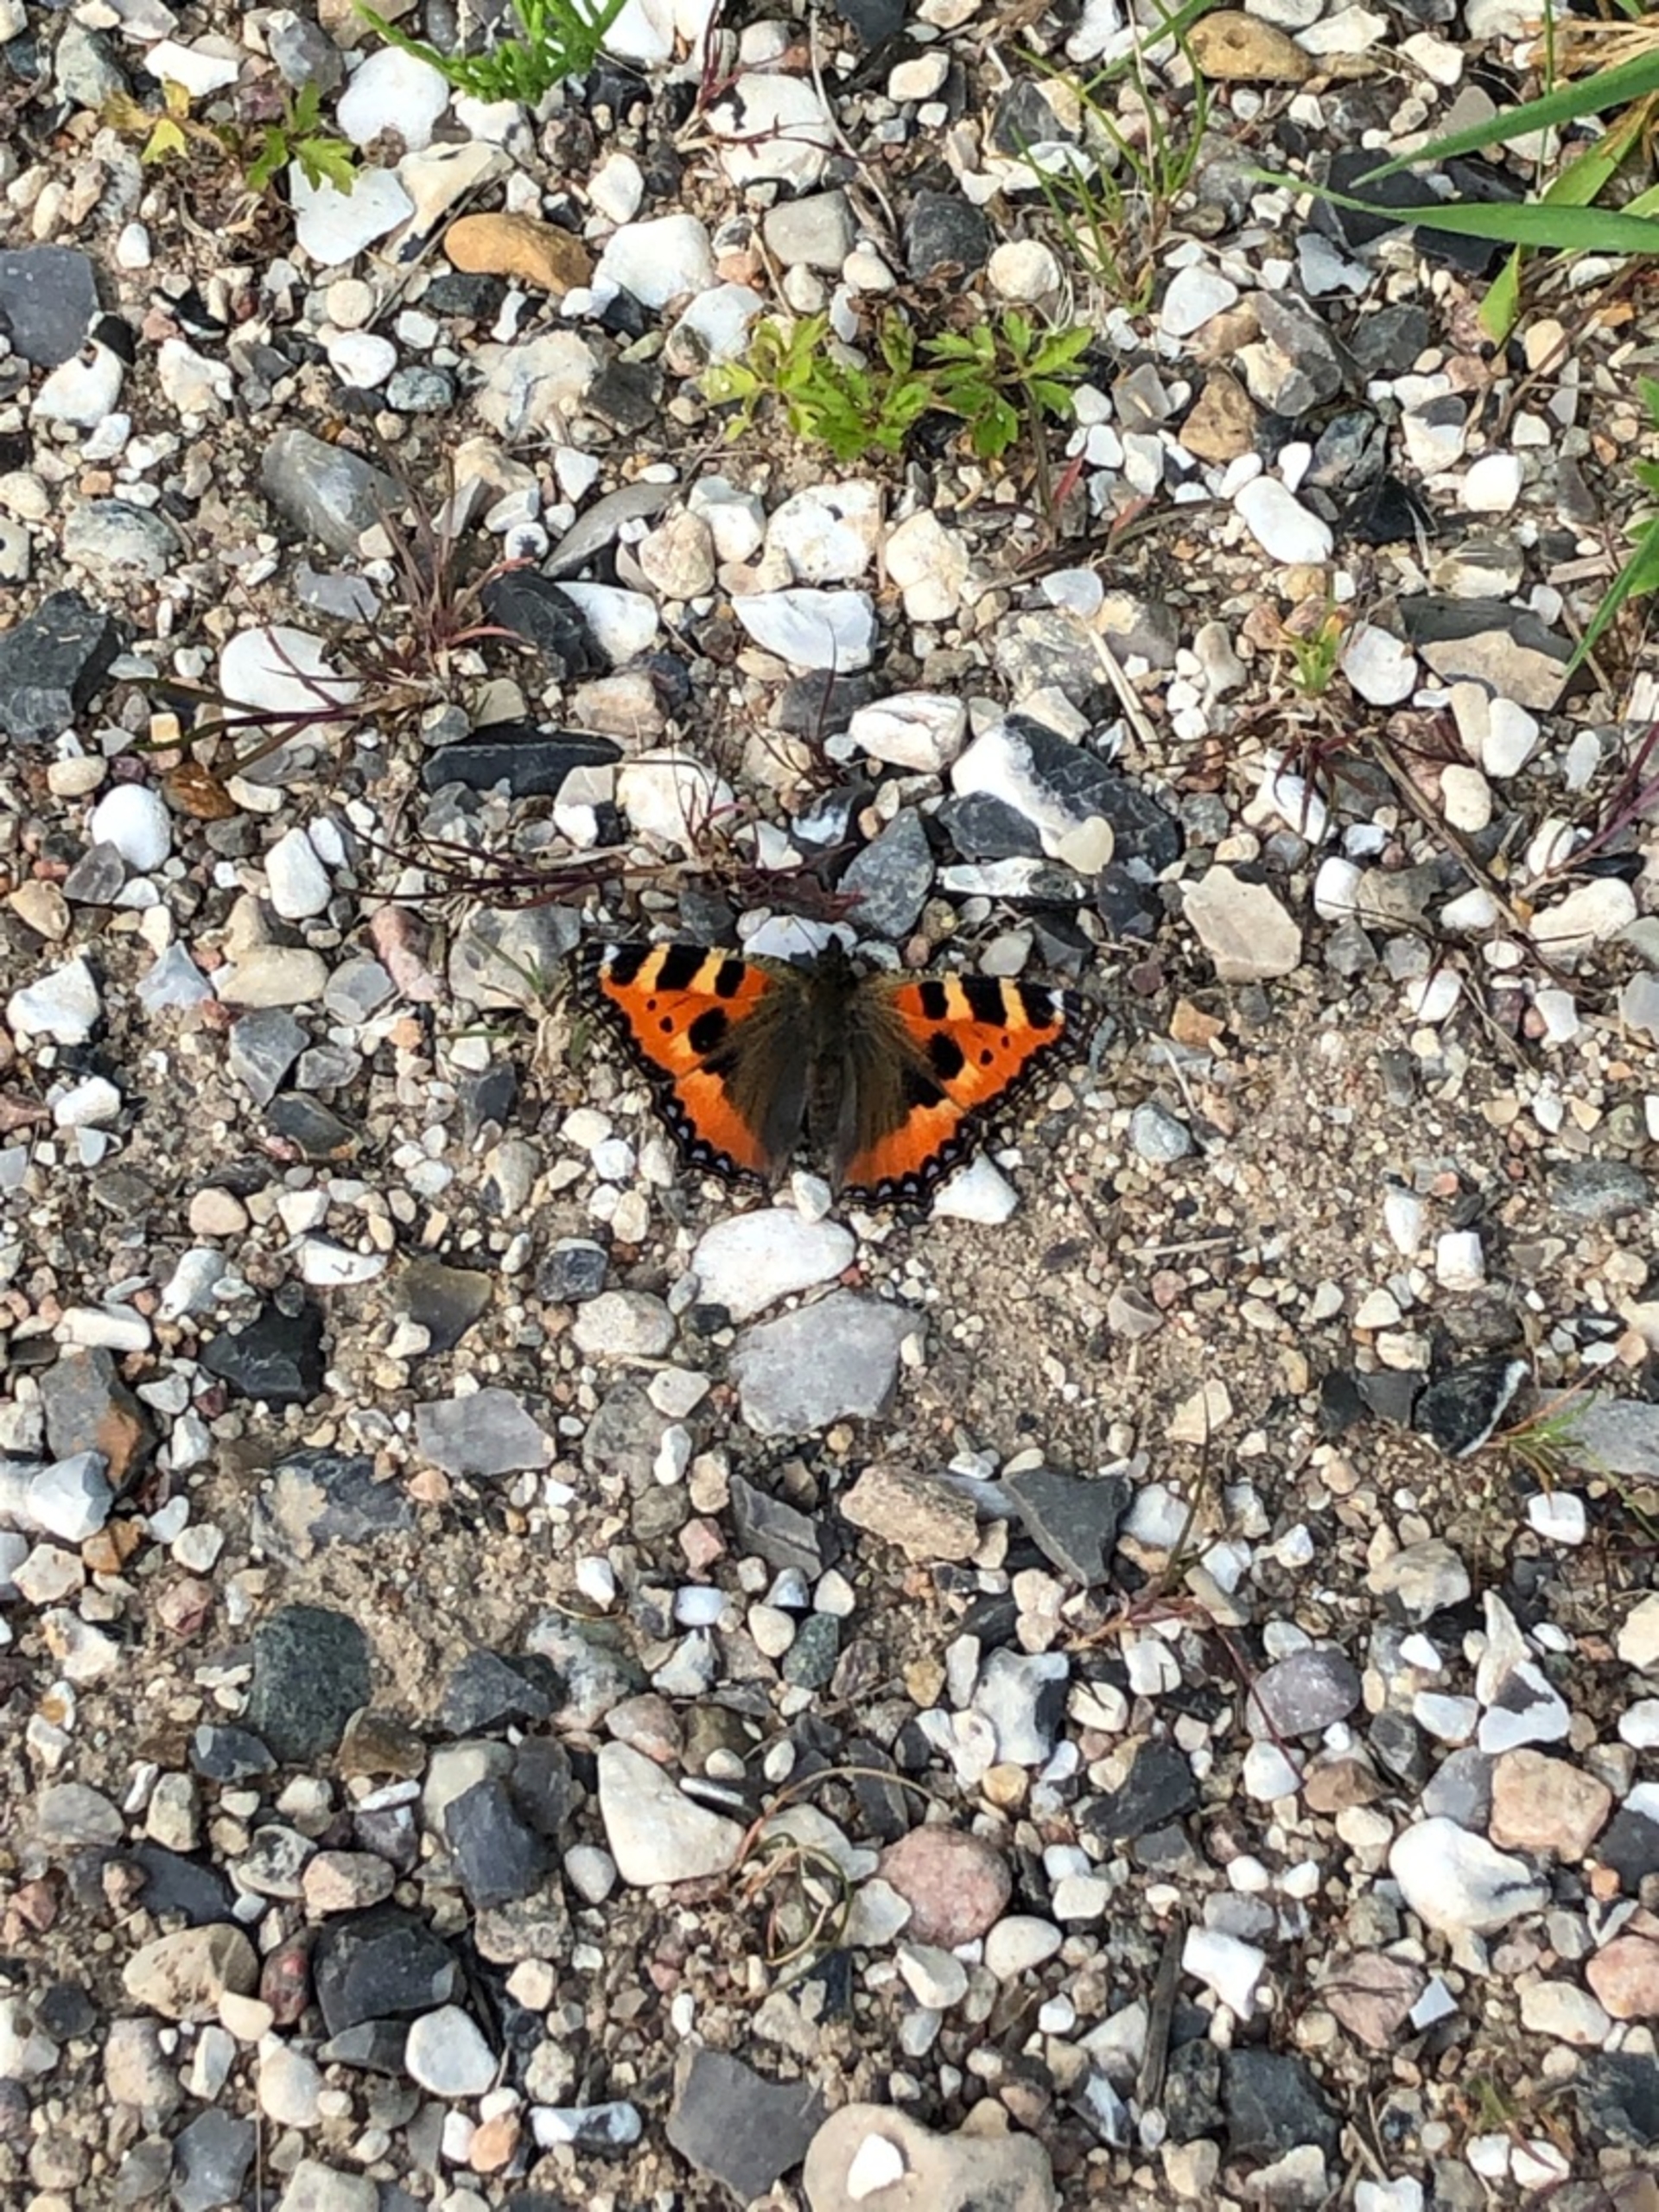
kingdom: Animalia
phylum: Arthropoda
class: Insecta
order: Lepidoptera
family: Nymphalidae
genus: Aglais
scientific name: Aglais urticae
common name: Nældens takvinge
